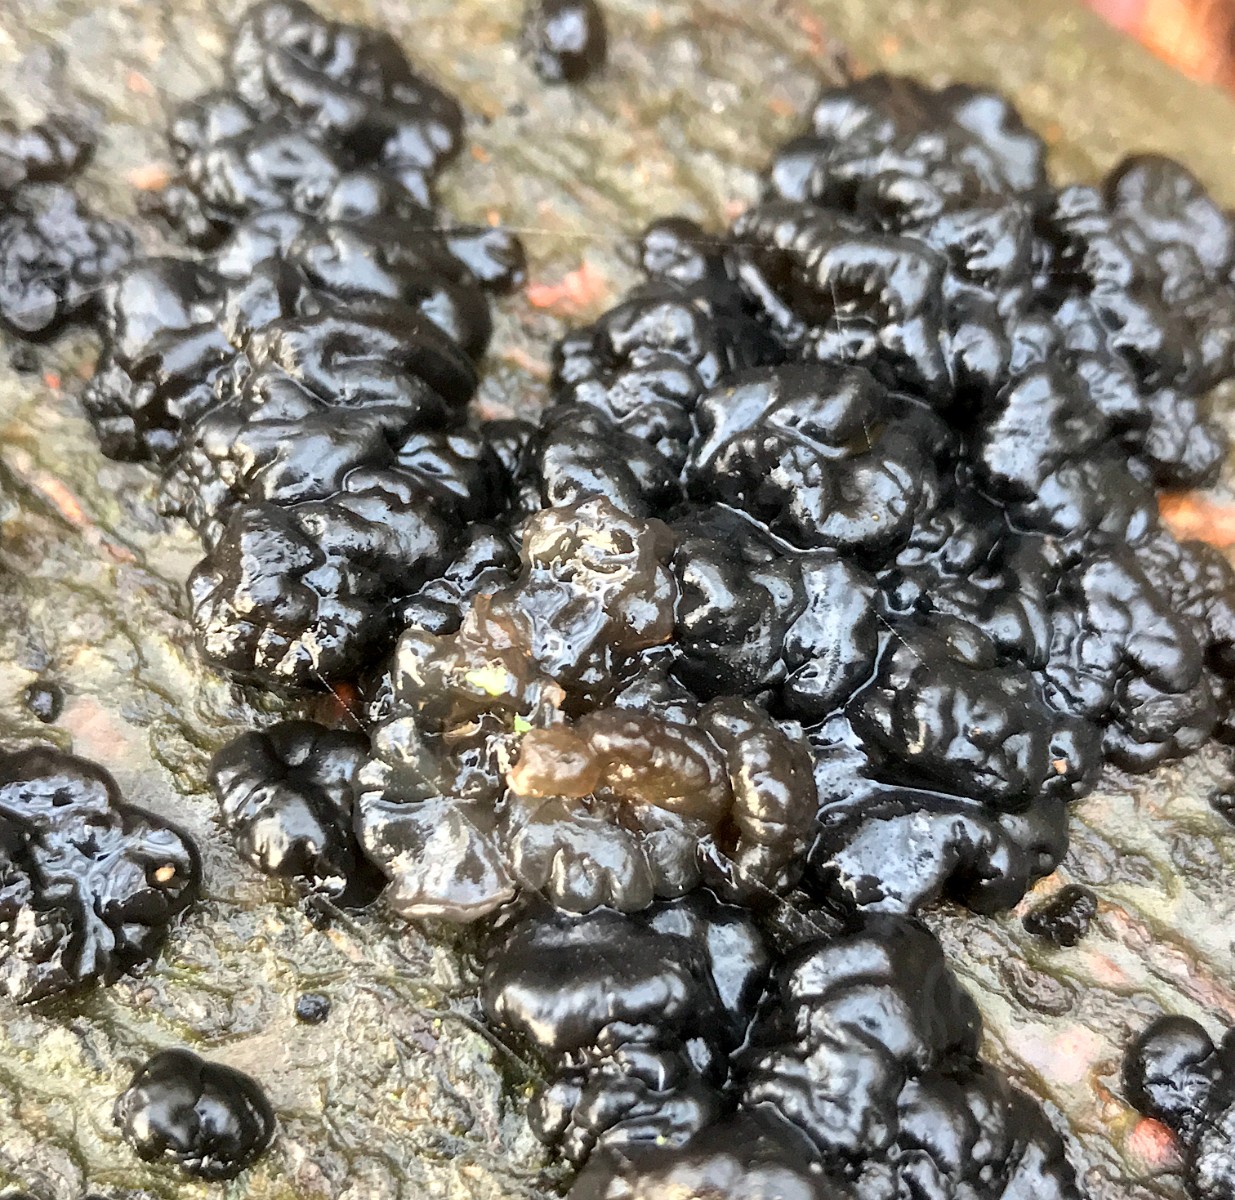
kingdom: Fungi
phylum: Basidiomycota
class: Agaricomycetes
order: Auriculariales
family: Auriculariaceae
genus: Exidia
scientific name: Exidia nigricans
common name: almindelig bævretop
